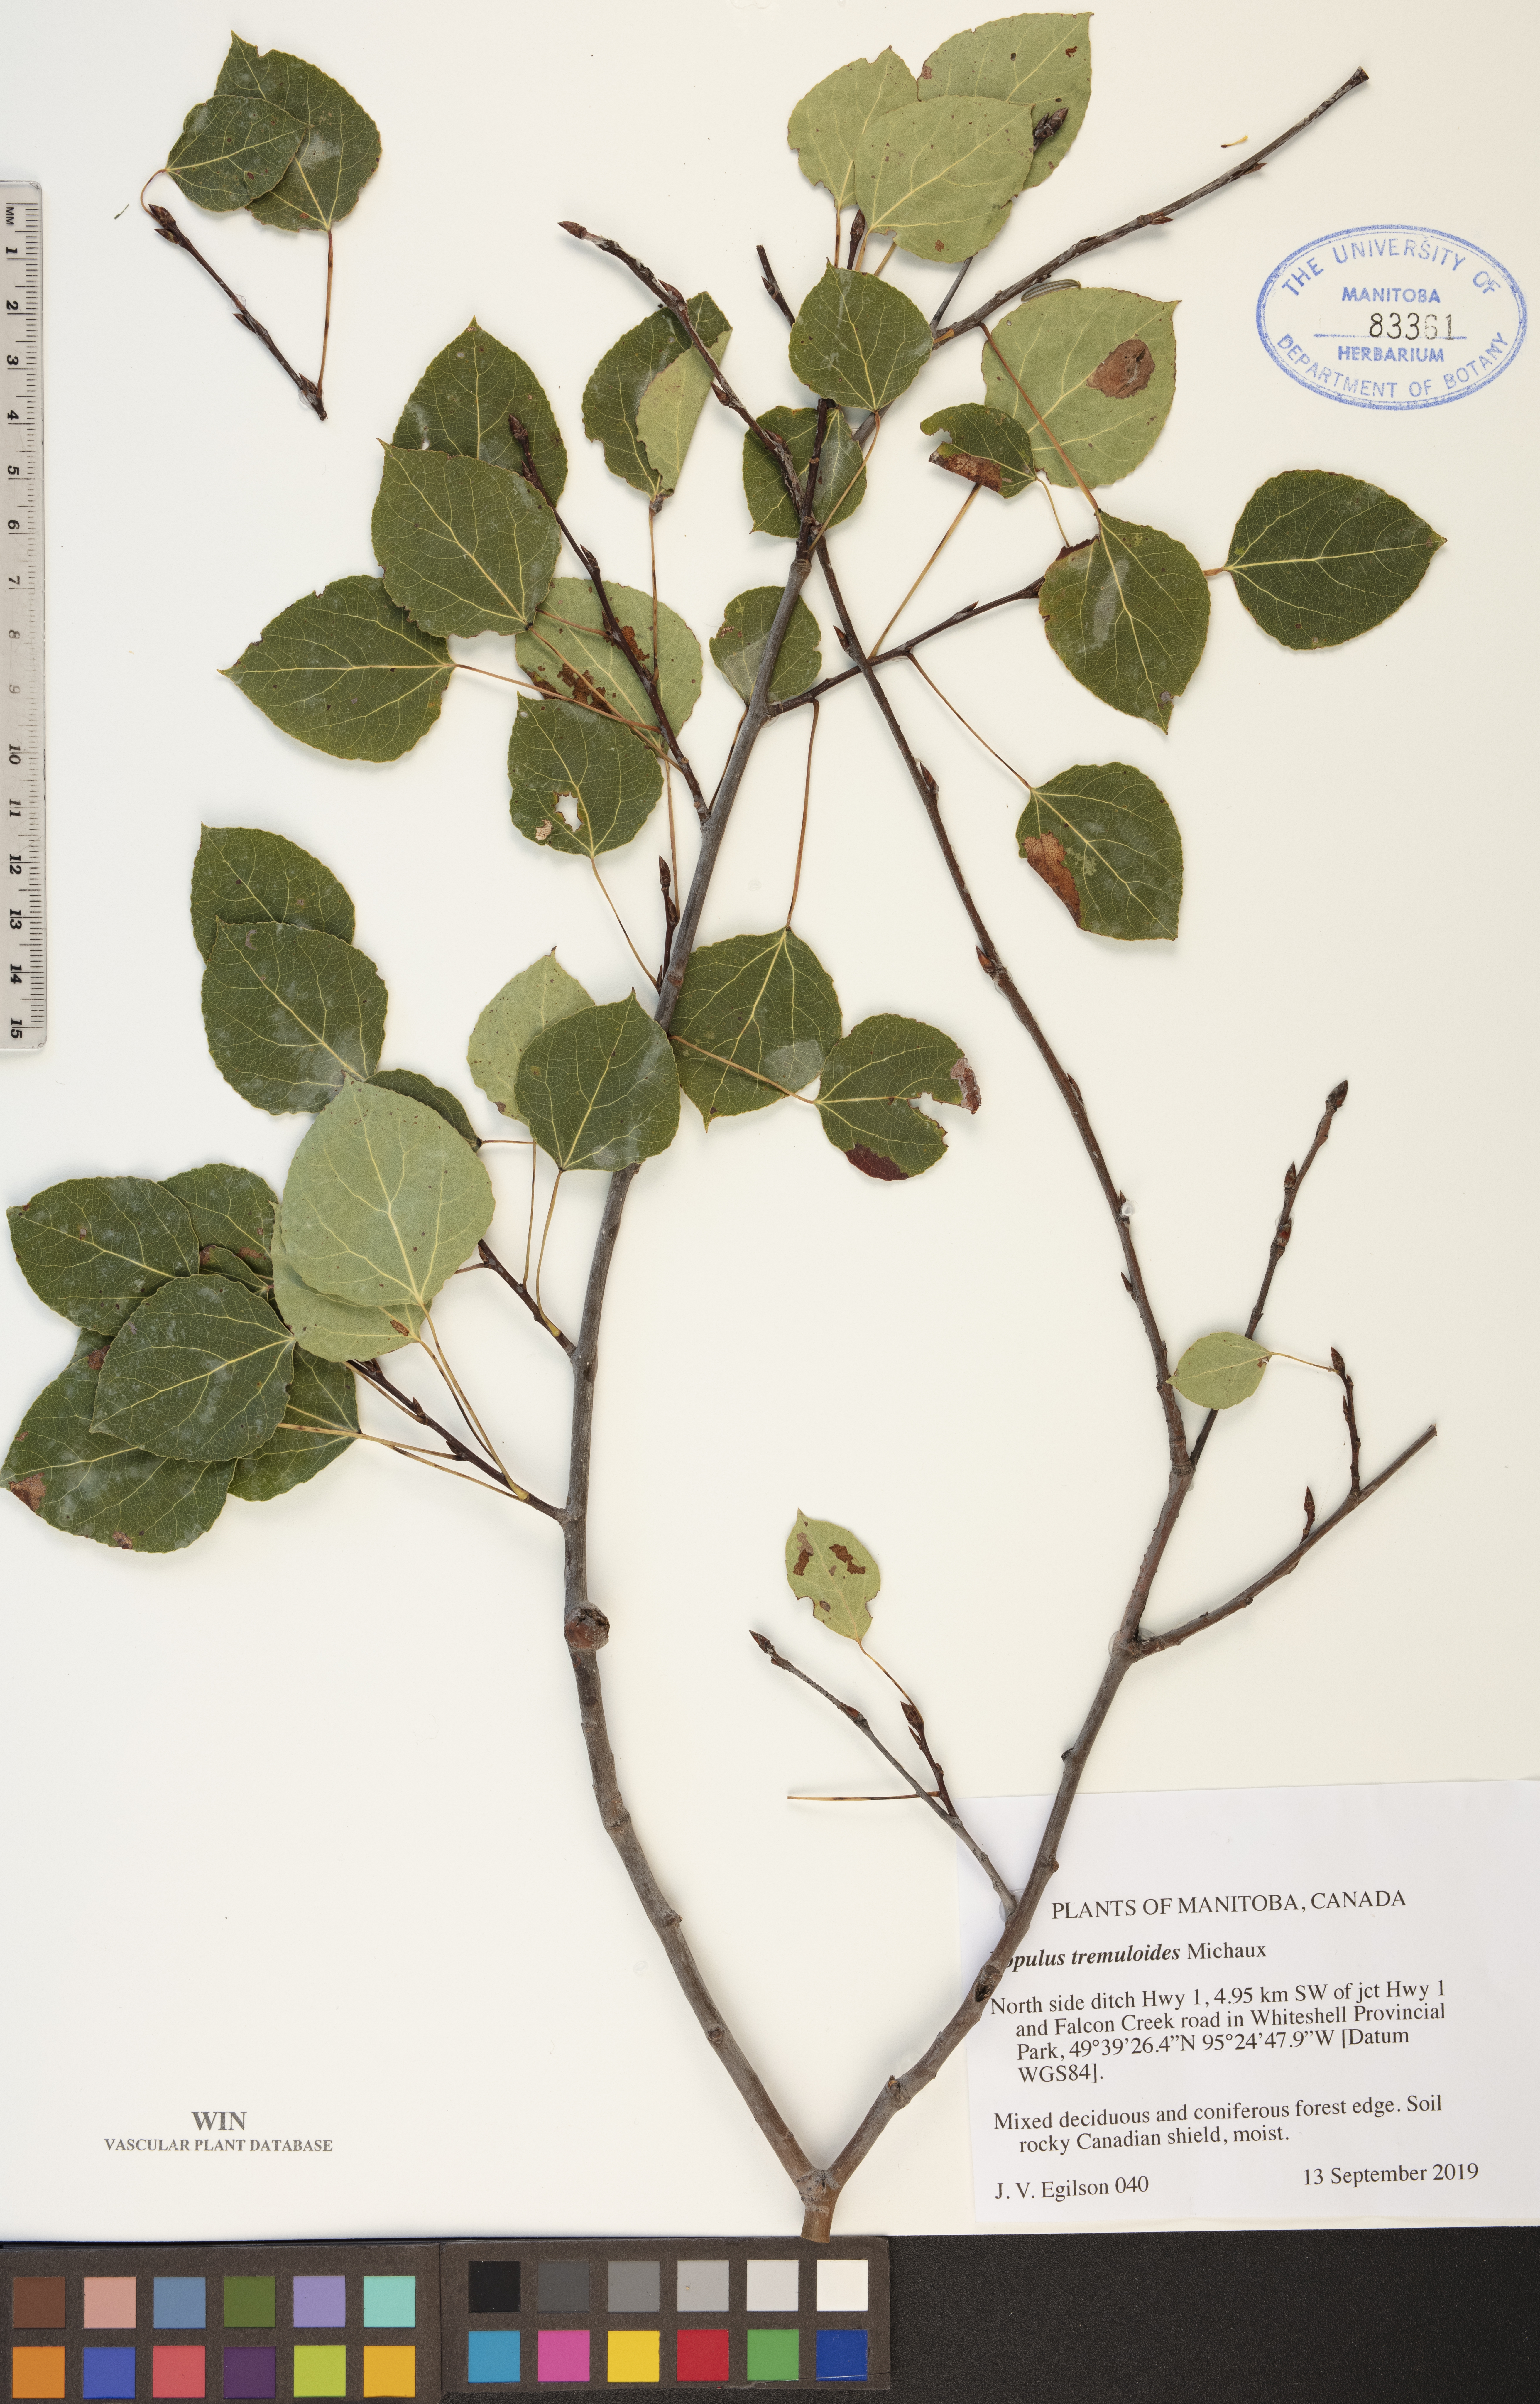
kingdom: Plantae
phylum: Tracheophyta
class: Magnoliopsida
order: Malpighiales
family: Salicaceae
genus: Populus
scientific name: Populus tremuloides
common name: Quaking aspen
